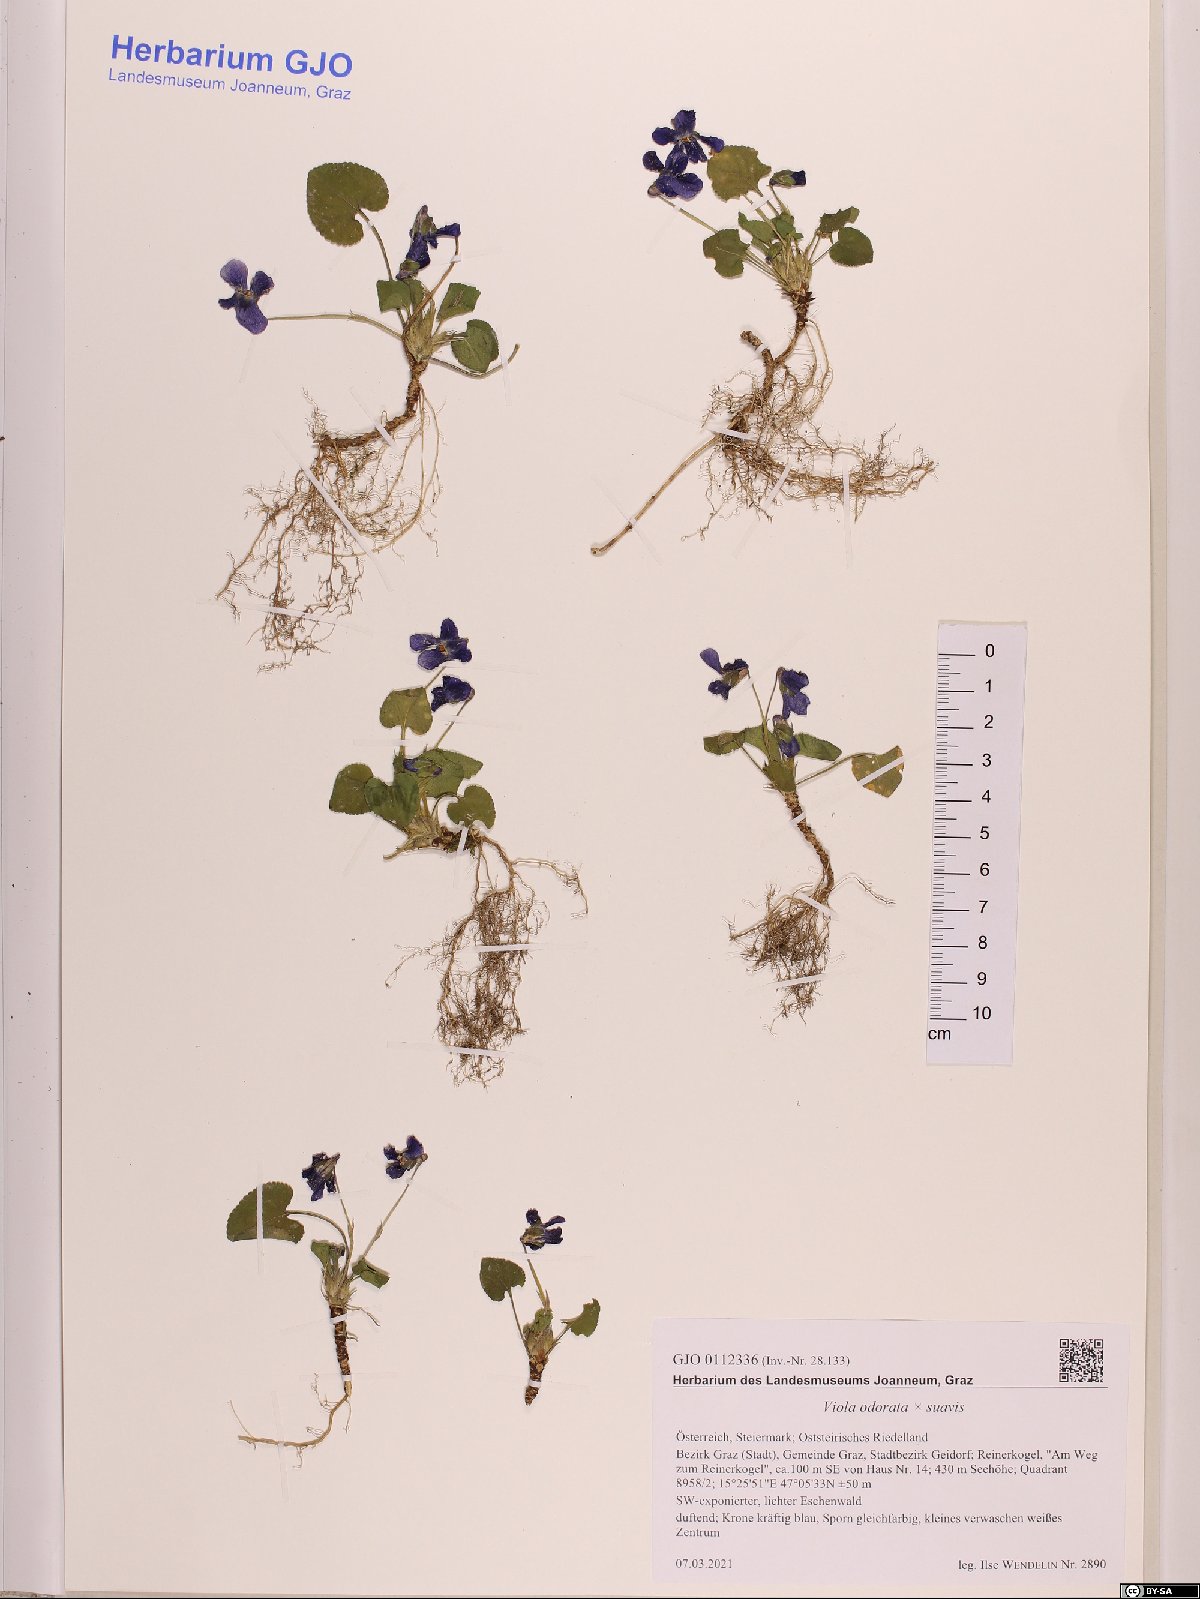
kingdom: Plantae
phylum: Tracheophyta
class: Magnoliopsida
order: Malpighiales
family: Violaceae
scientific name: Violaceae
